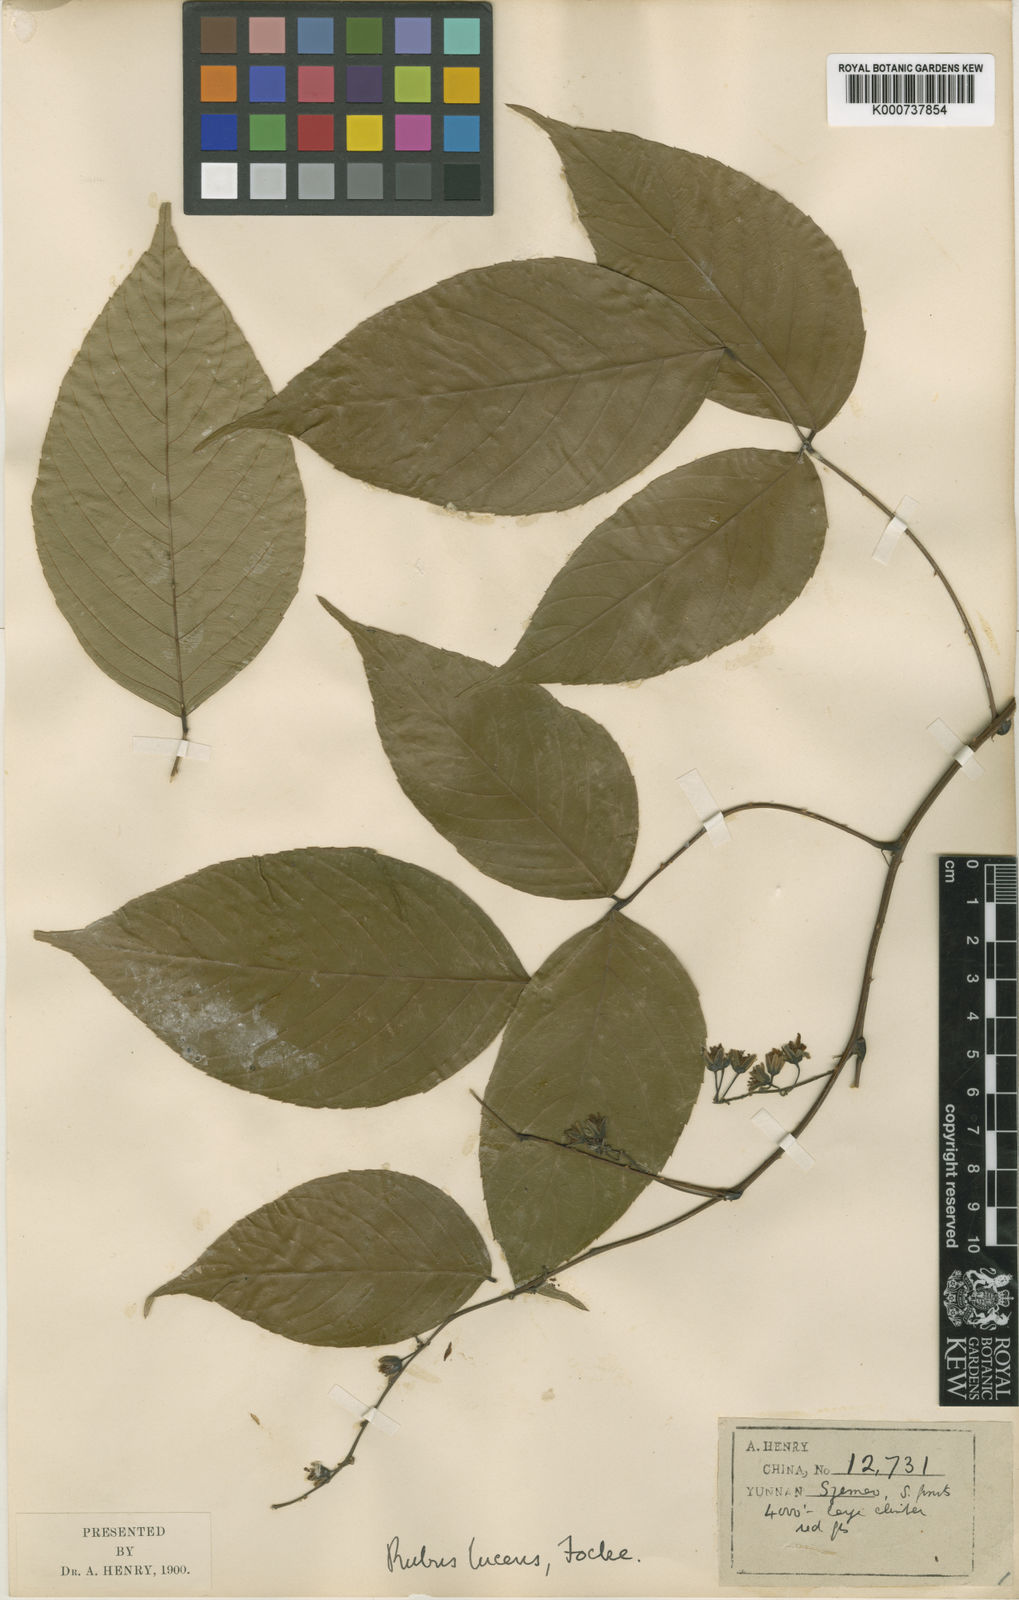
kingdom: Plantae
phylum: Tracheophyta
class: Magnoliopsida
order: Rosales
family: Rosaceae
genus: Rubus
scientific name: Rubus idaeus
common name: Raspberry
